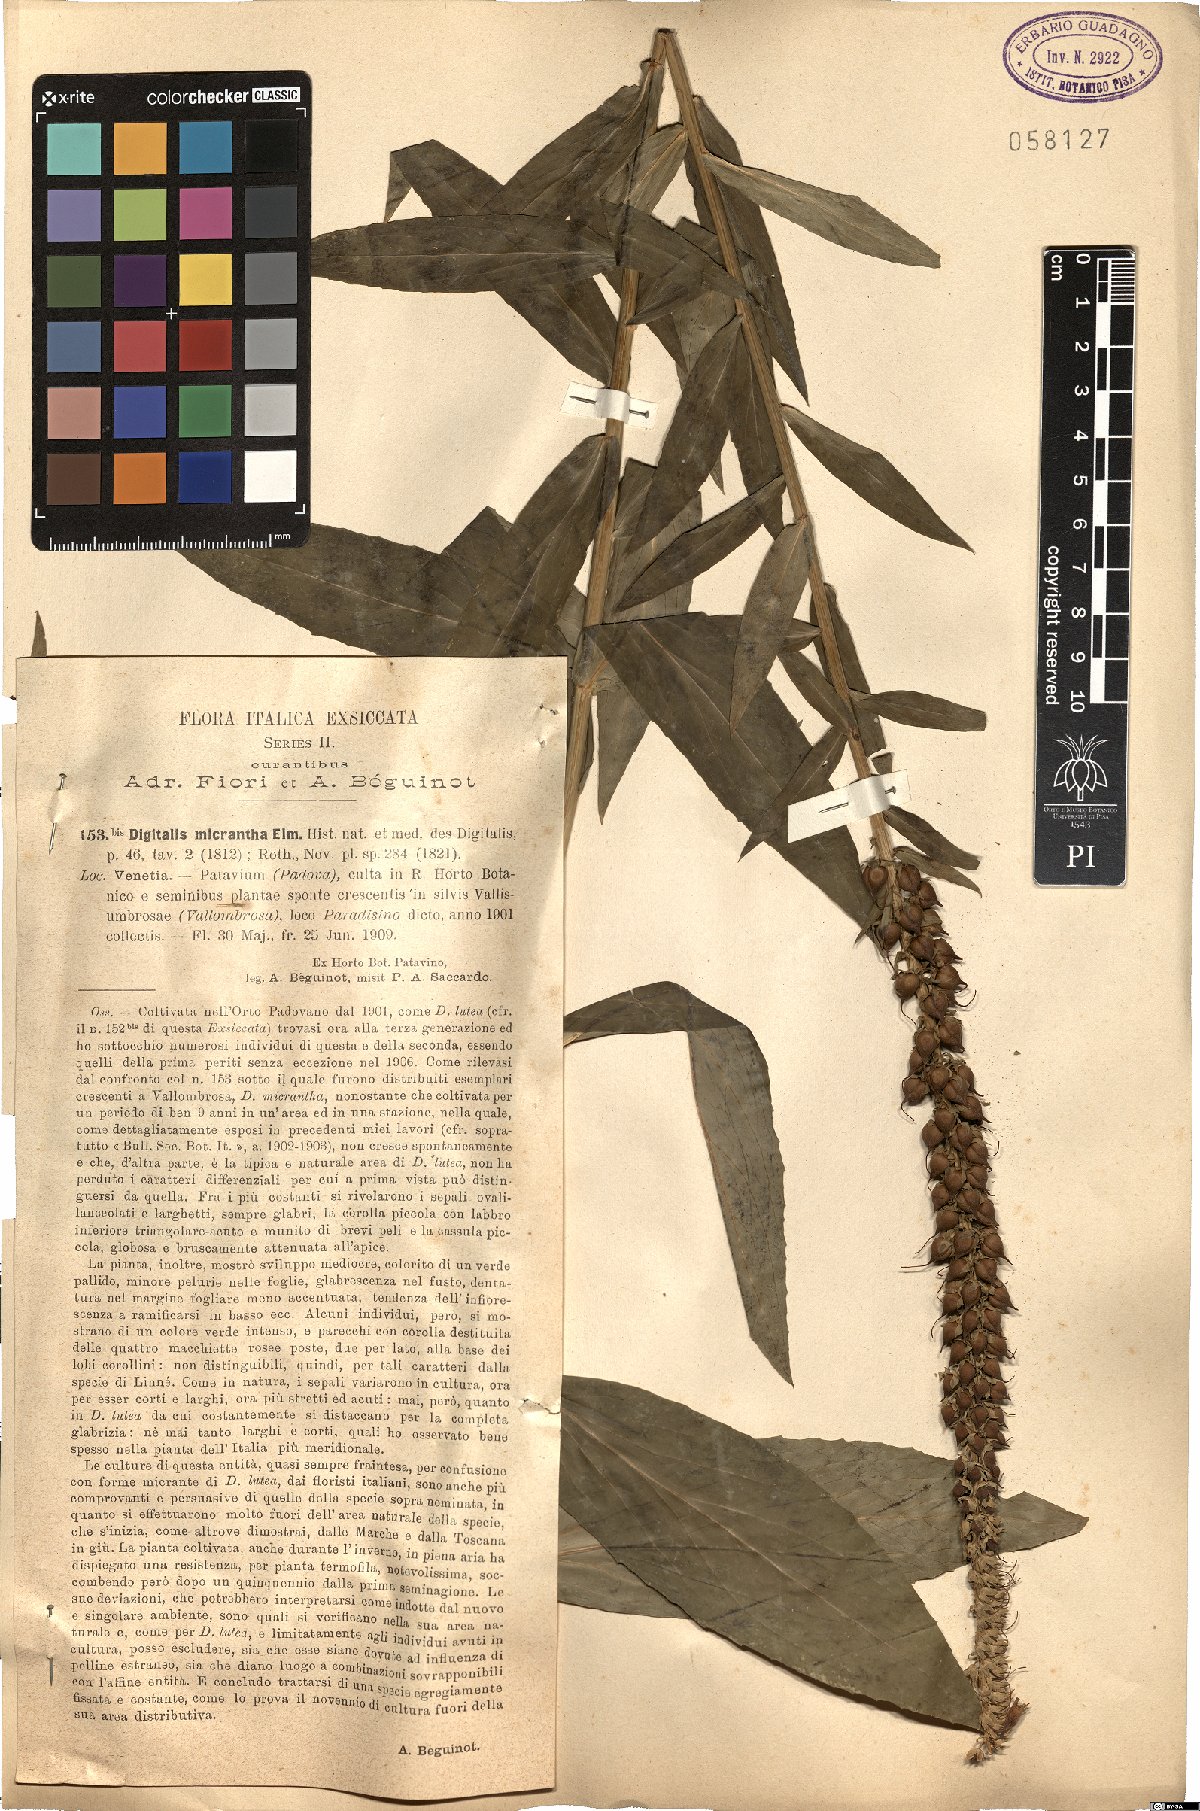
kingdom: Plantae
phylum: Tracheophyta
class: Magnoliopsida
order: Lamiales
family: Plantaginaceae
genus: Digitalis
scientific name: Digitalis lutea
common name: Straw foxglove
